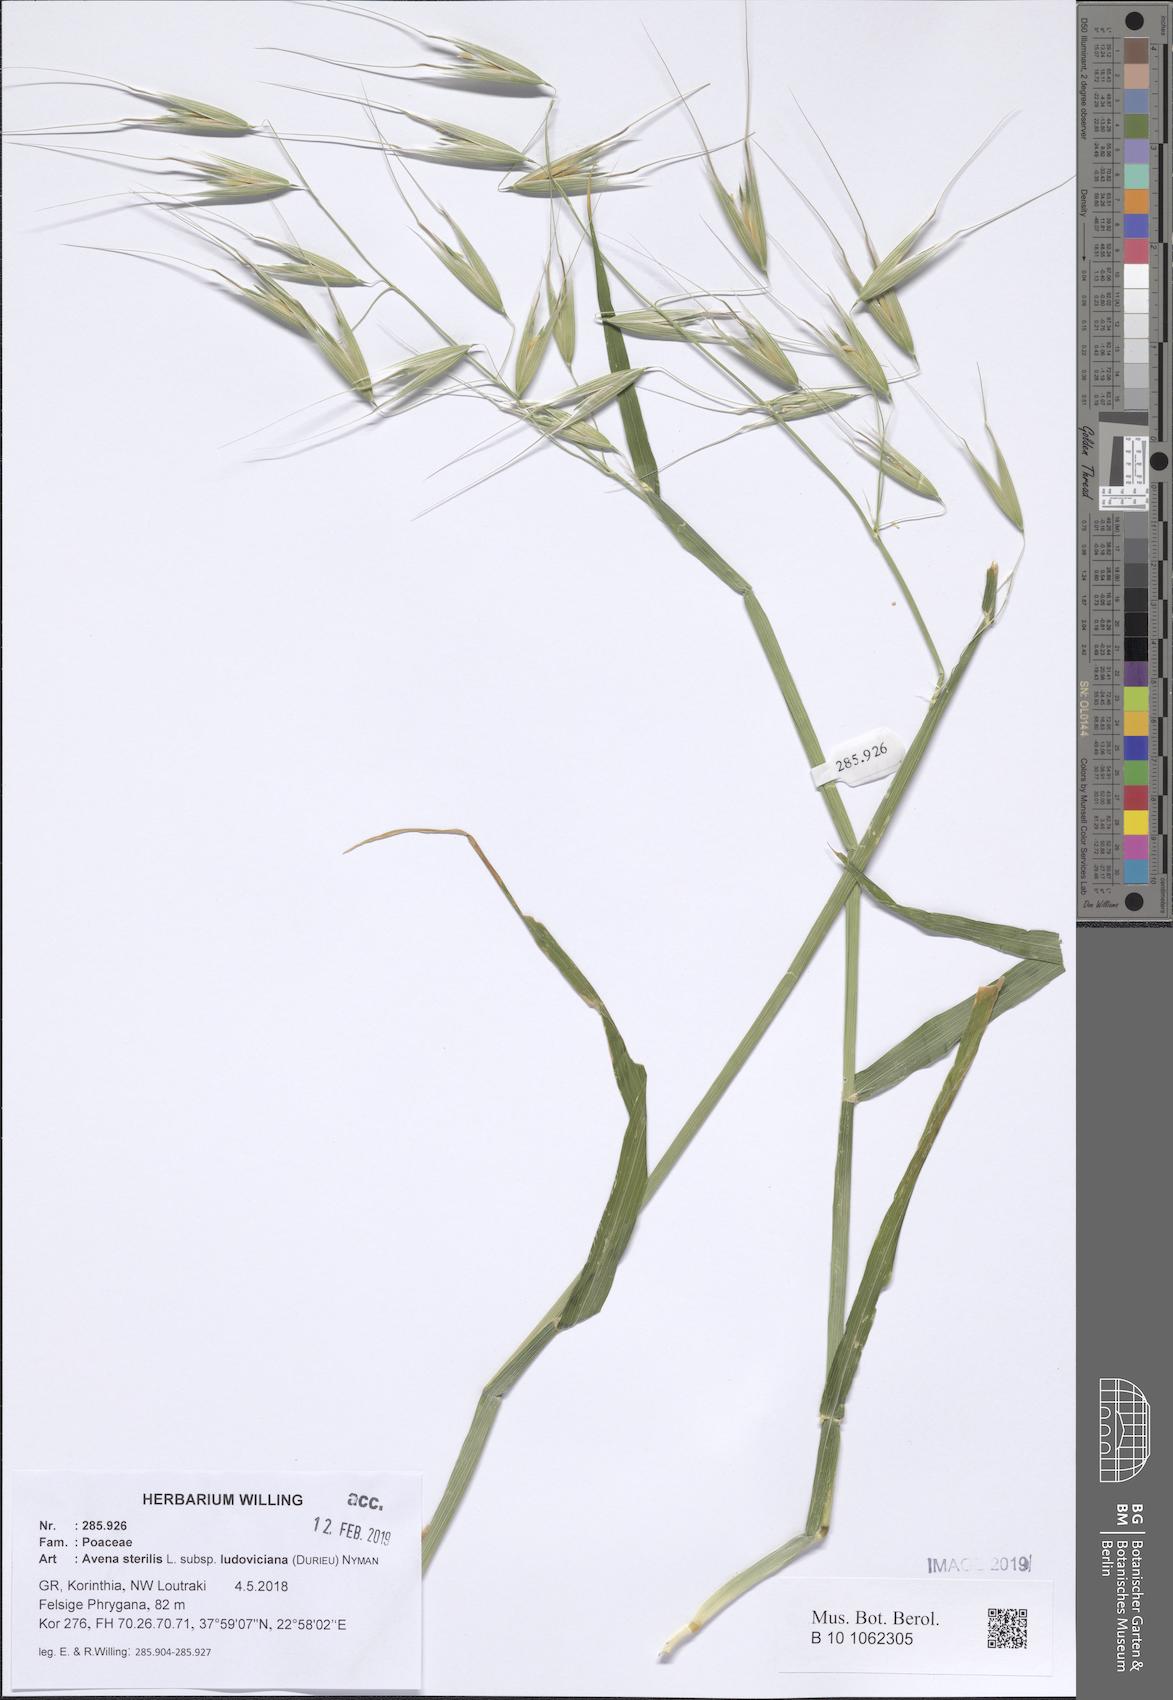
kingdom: Plantae
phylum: Tracheophyta
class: Liliopsida
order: Poales
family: Poaceae
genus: Avena
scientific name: Avena sterilis
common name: Animated oat
